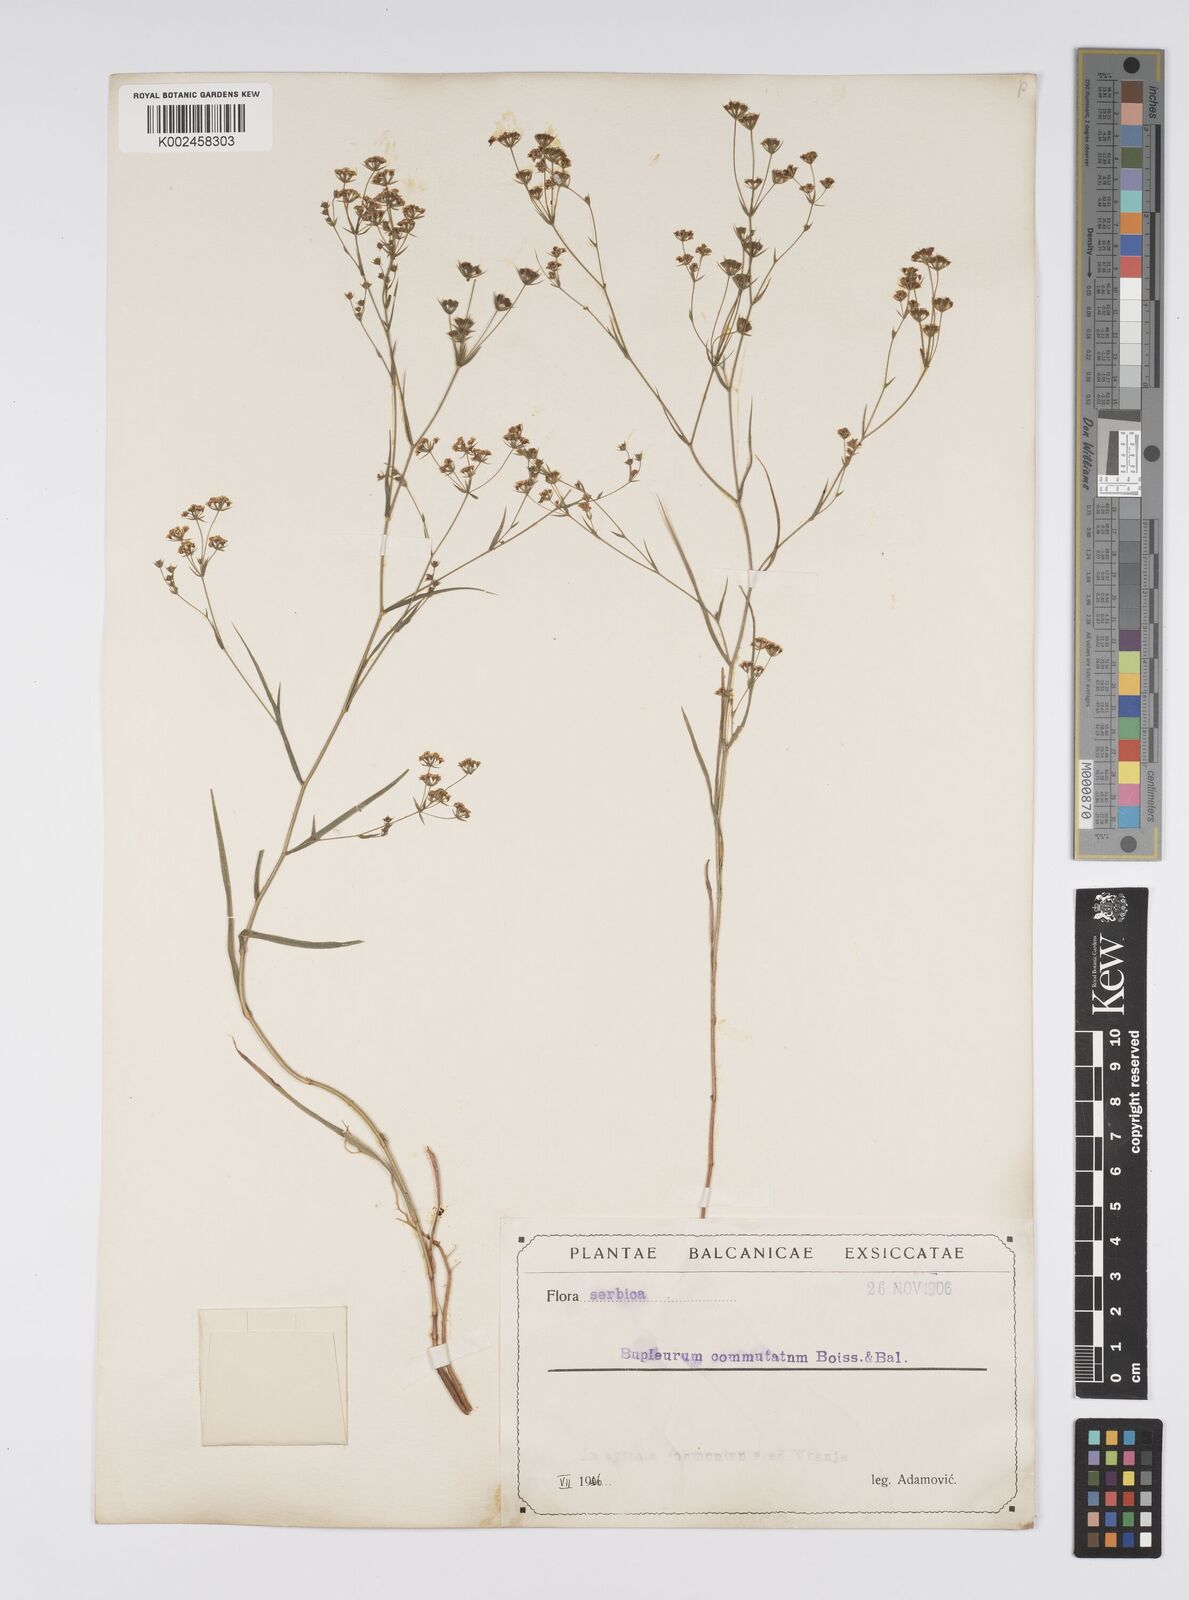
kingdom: Plantae
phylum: Tracheophyta
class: Magnoliopsida
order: Apiales
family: Apiaceae
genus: Bupleurum
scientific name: Bupleurum commutatum
